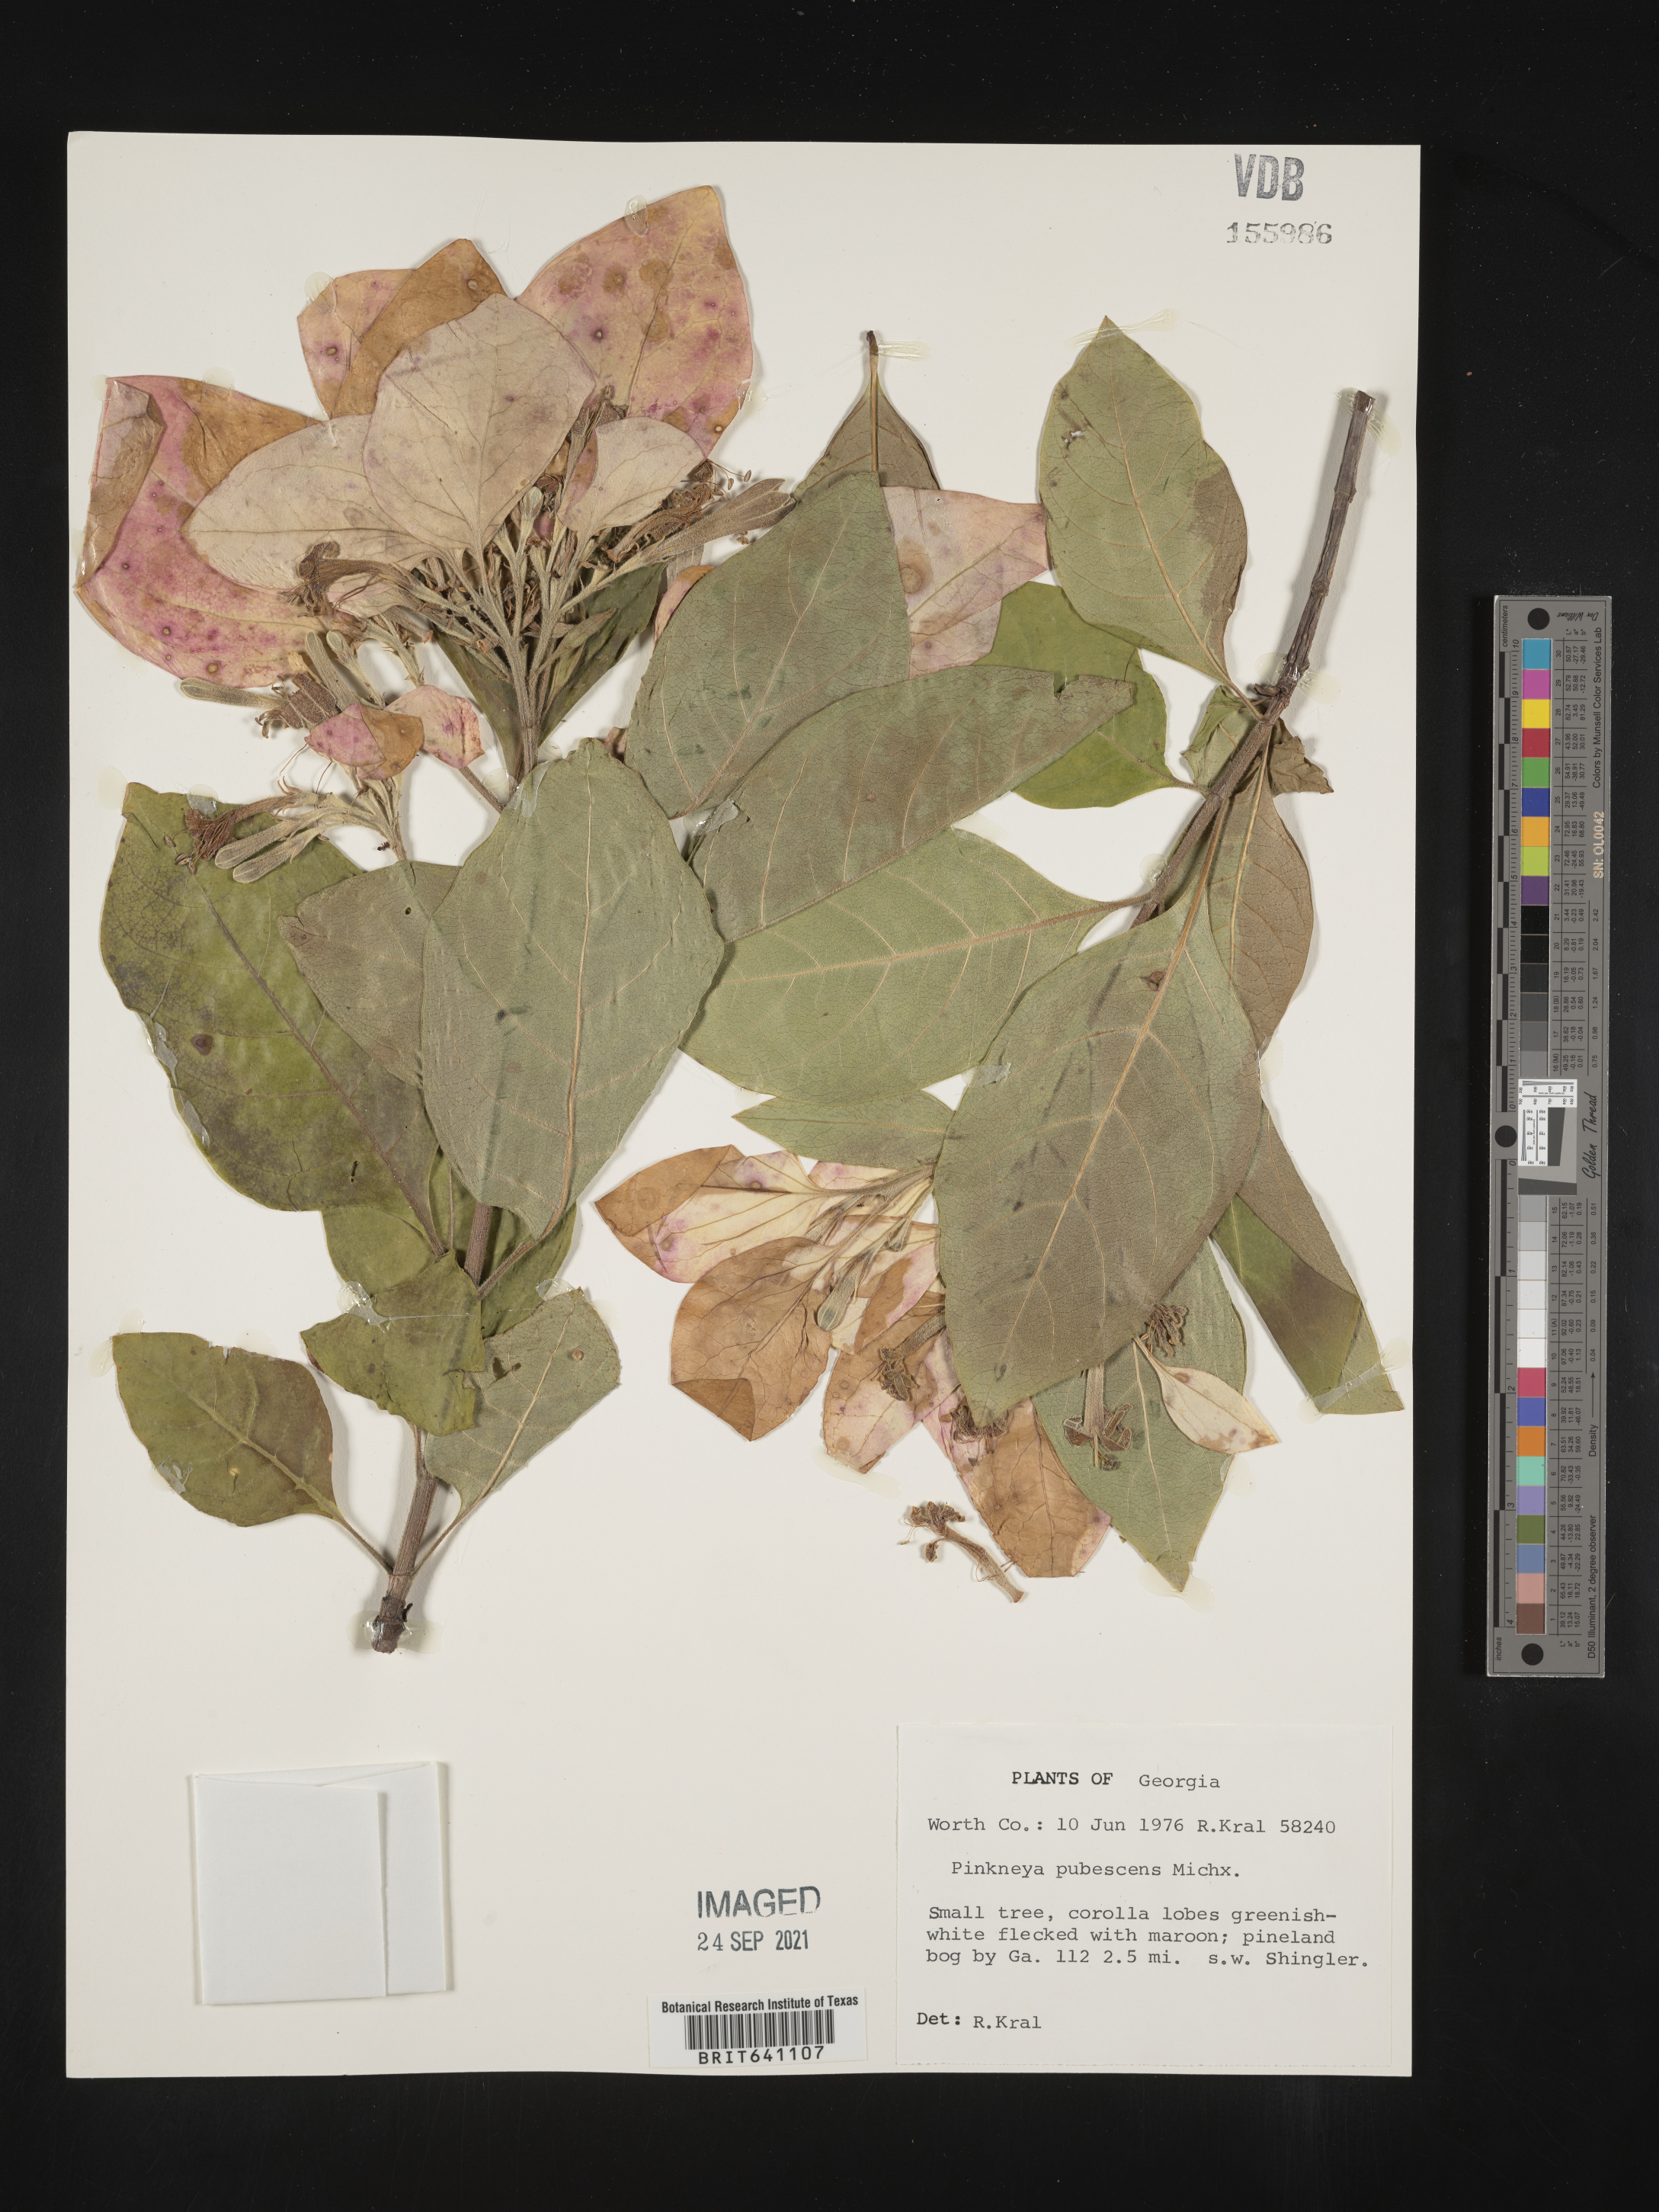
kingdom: Plantae
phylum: Tracheophyta
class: Magnoliopsida
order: Gentianales
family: Rubiaceae
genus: Pinckneya
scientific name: Pinckneya pubens
